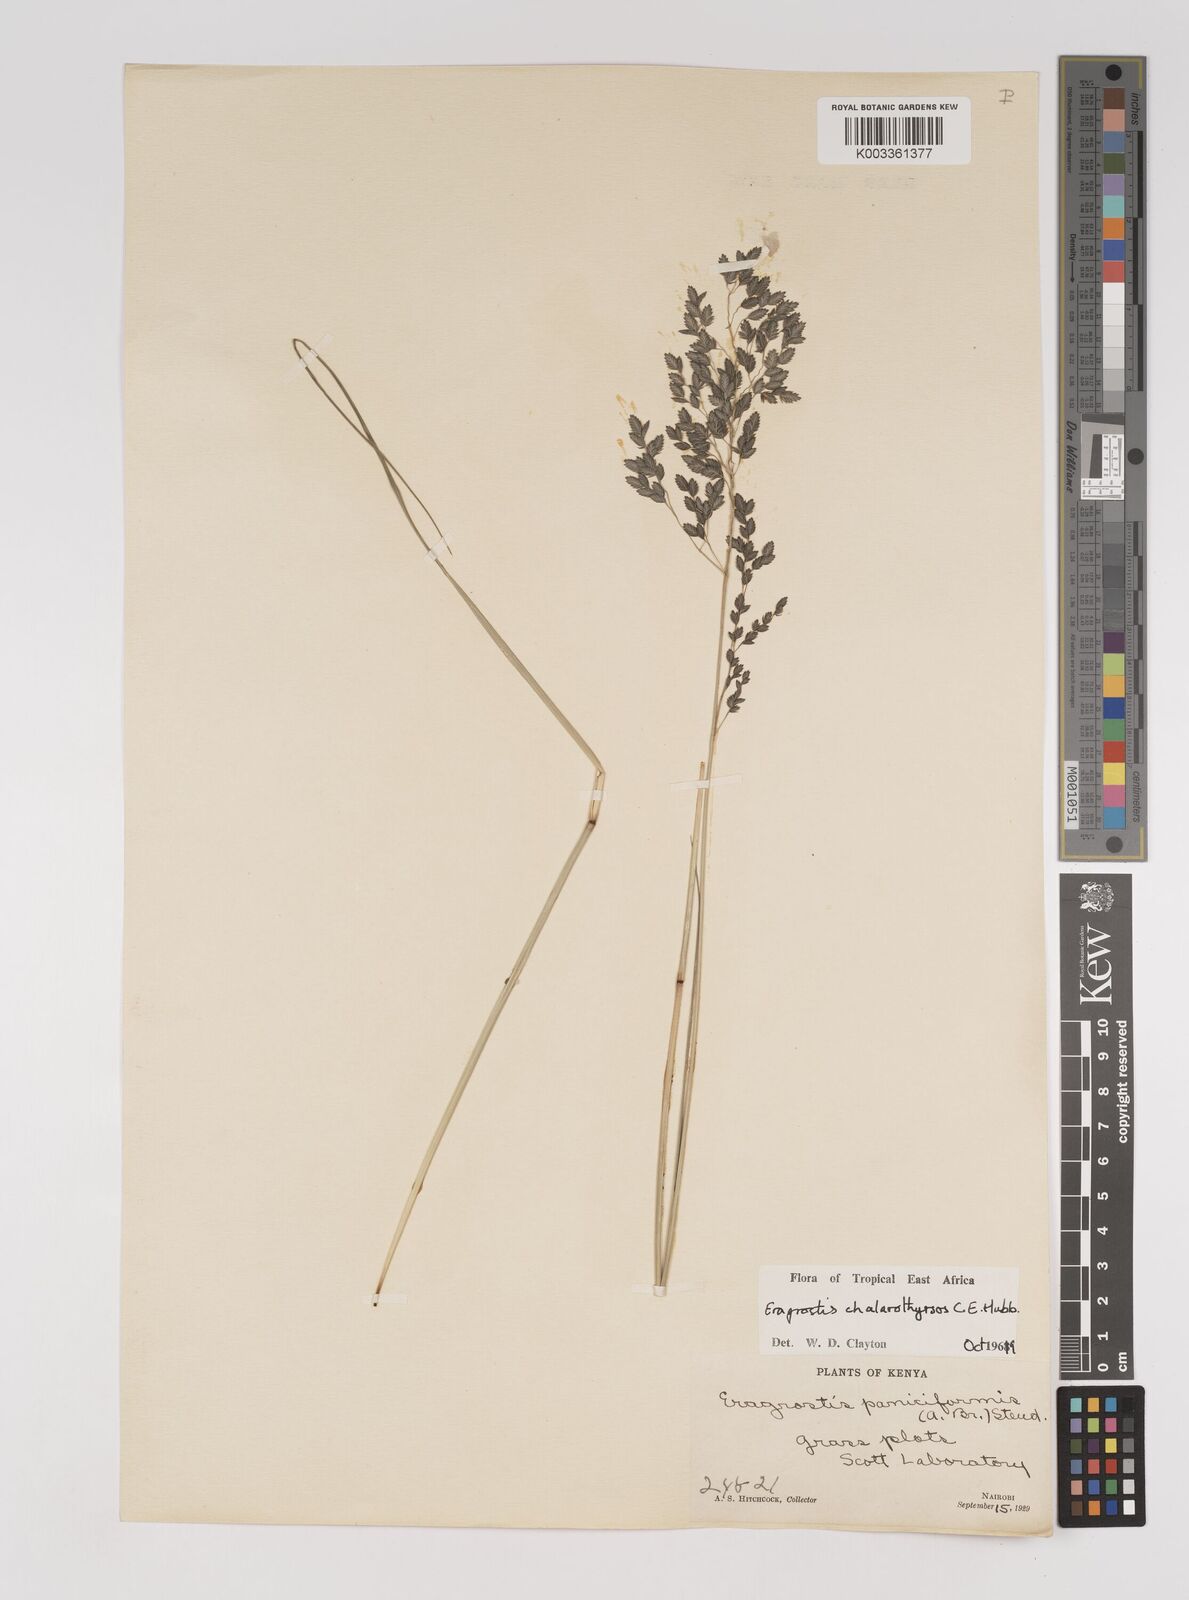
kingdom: Plantae
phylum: Tracheophyta
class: Liliopsida
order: Poales
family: Poaceae
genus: Eragrostis
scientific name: Eragrostis chalarothyrsos
